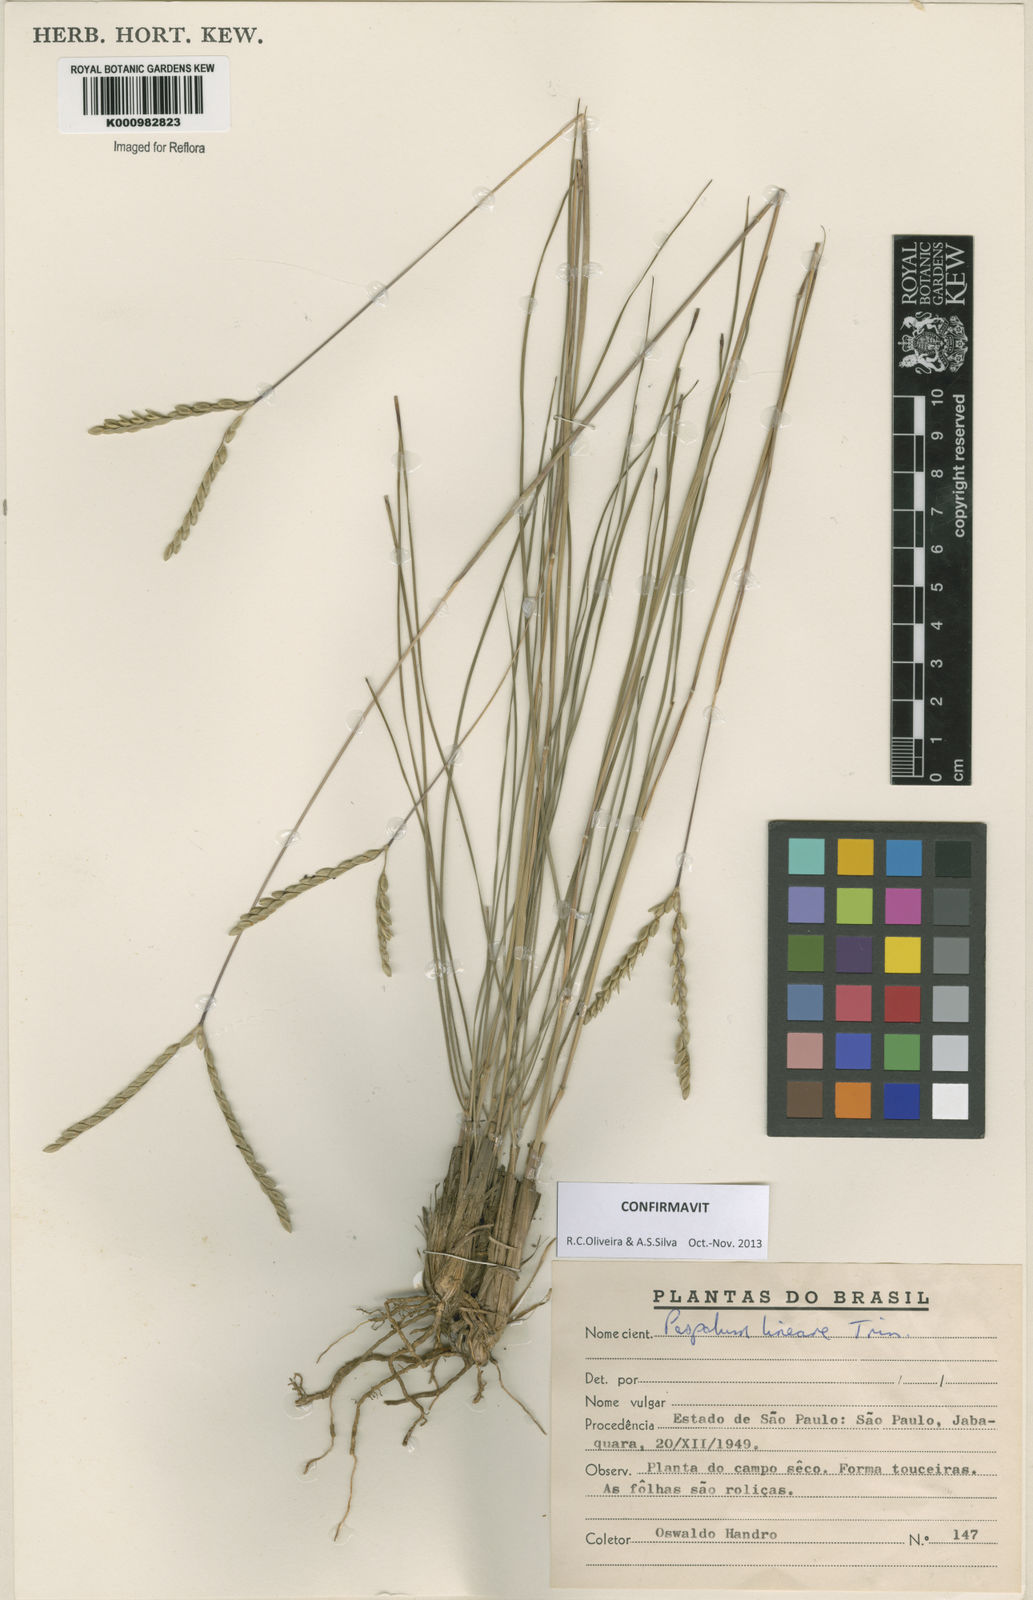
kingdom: Plantae
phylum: Tracheophyta
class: Liliopsida
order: Poales
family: Poaceae
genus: Paspalum
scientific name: Paspalum lineare
